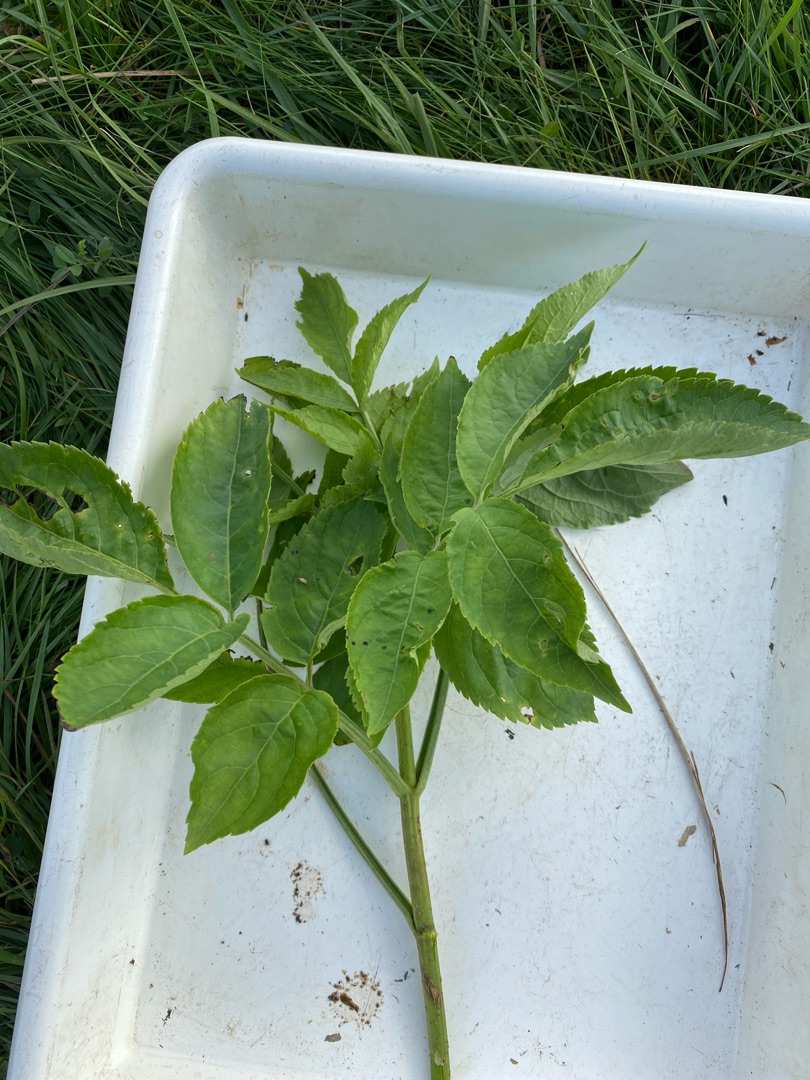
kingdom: Plantae
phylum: Tracheophyta
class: Magnoliopsida
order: Dipsacales
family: Viburnaceae
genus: Sambucus
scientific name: Sambucus nigra
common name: Almindelig hyld
